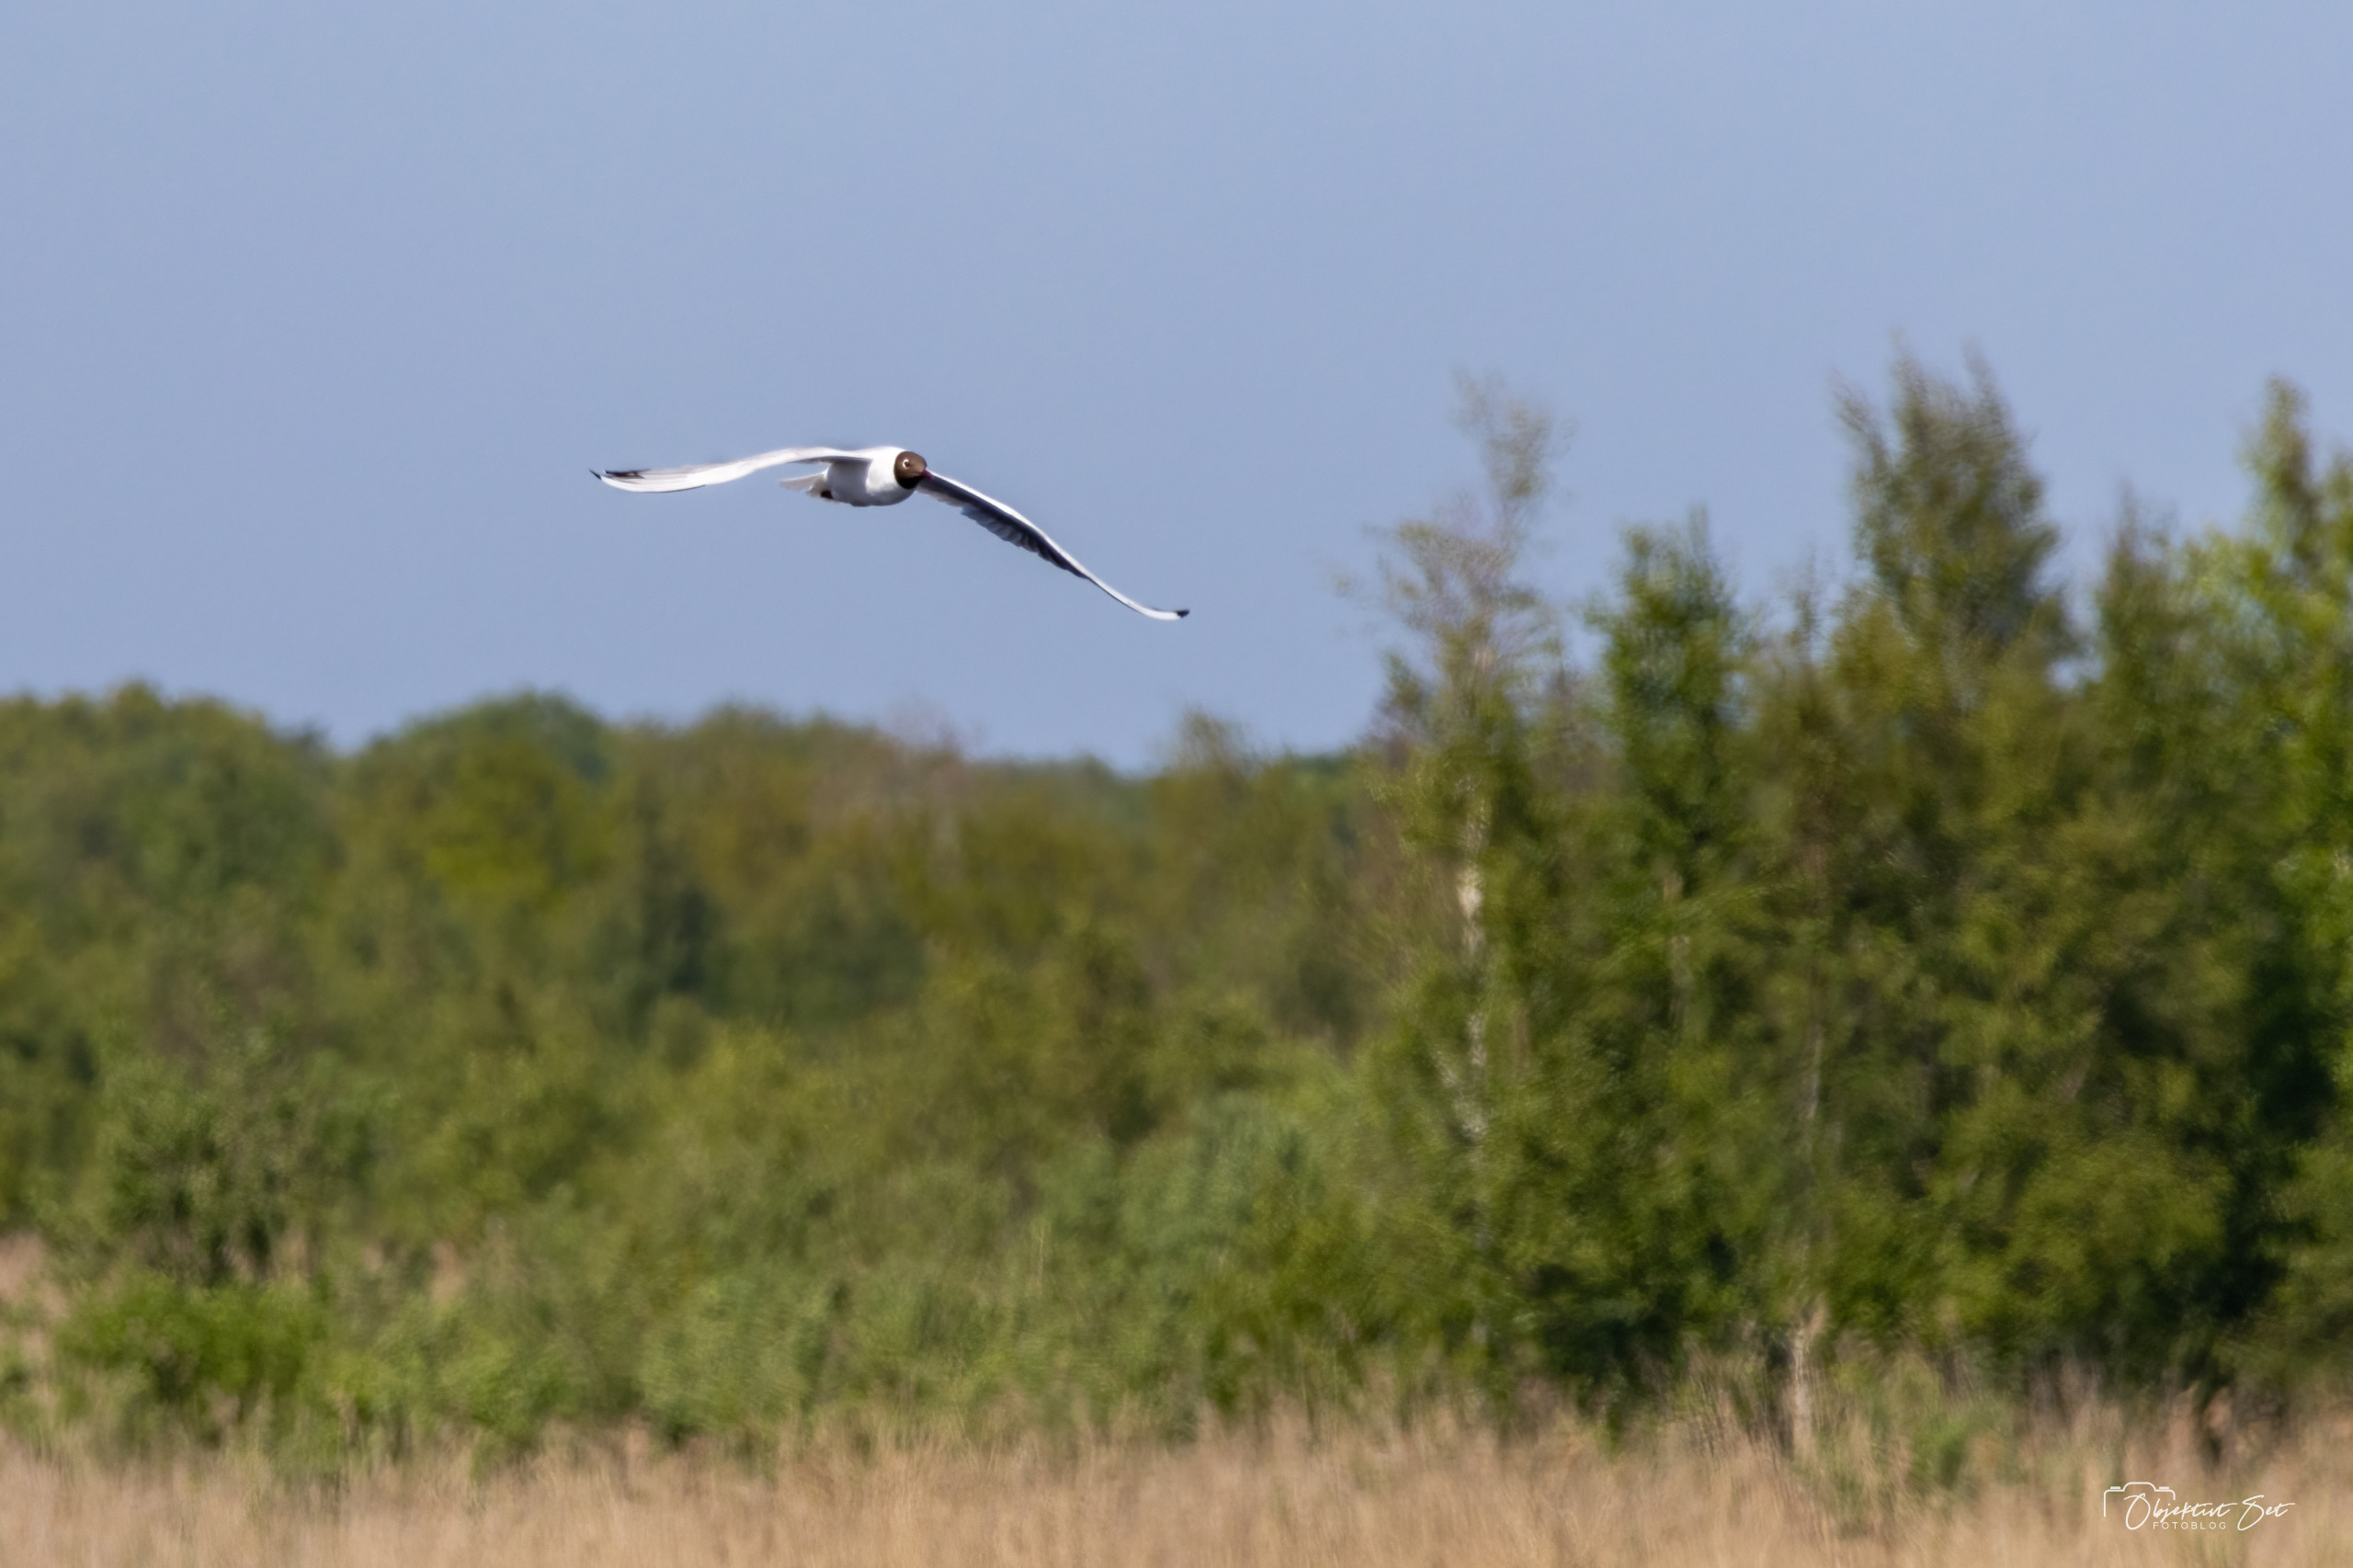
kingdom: Animalia
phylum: Chordata
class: Aves
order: Charadriiformes
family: Laridae
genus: Chroicocephalus
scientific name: Chroicocephalus ridibundus
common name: Hættemåge
